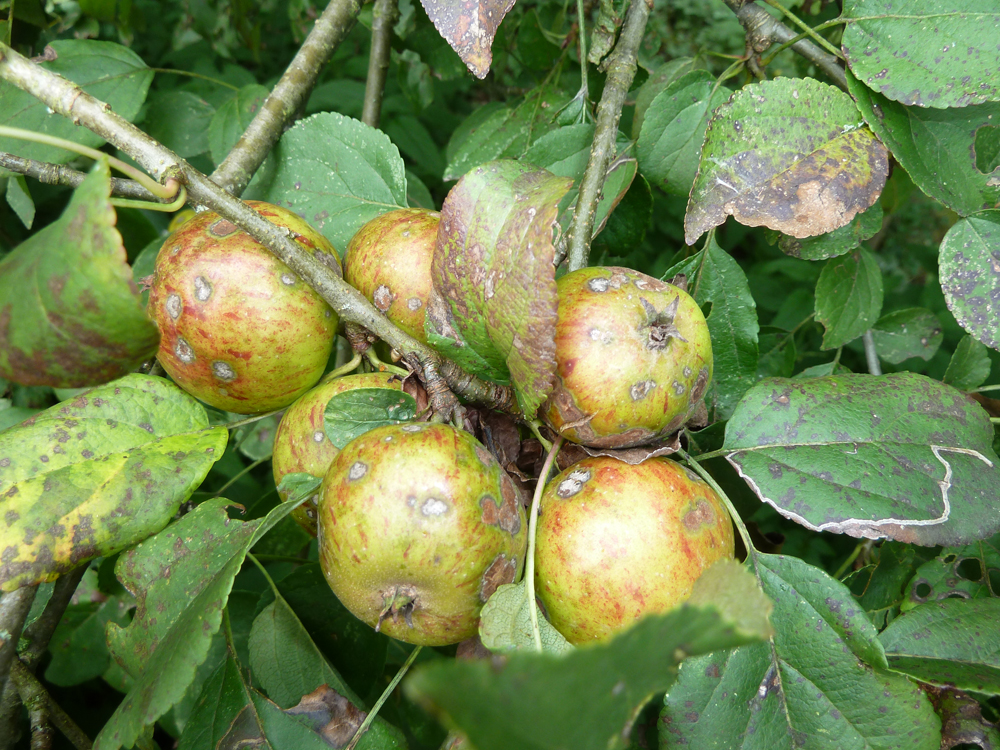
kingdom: Plantae
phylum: Tracheophyta
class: Magnoliopsida
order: Rosales
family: Rosaceae
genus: Malus
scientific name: Malus sylvestris
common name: Crab apple
